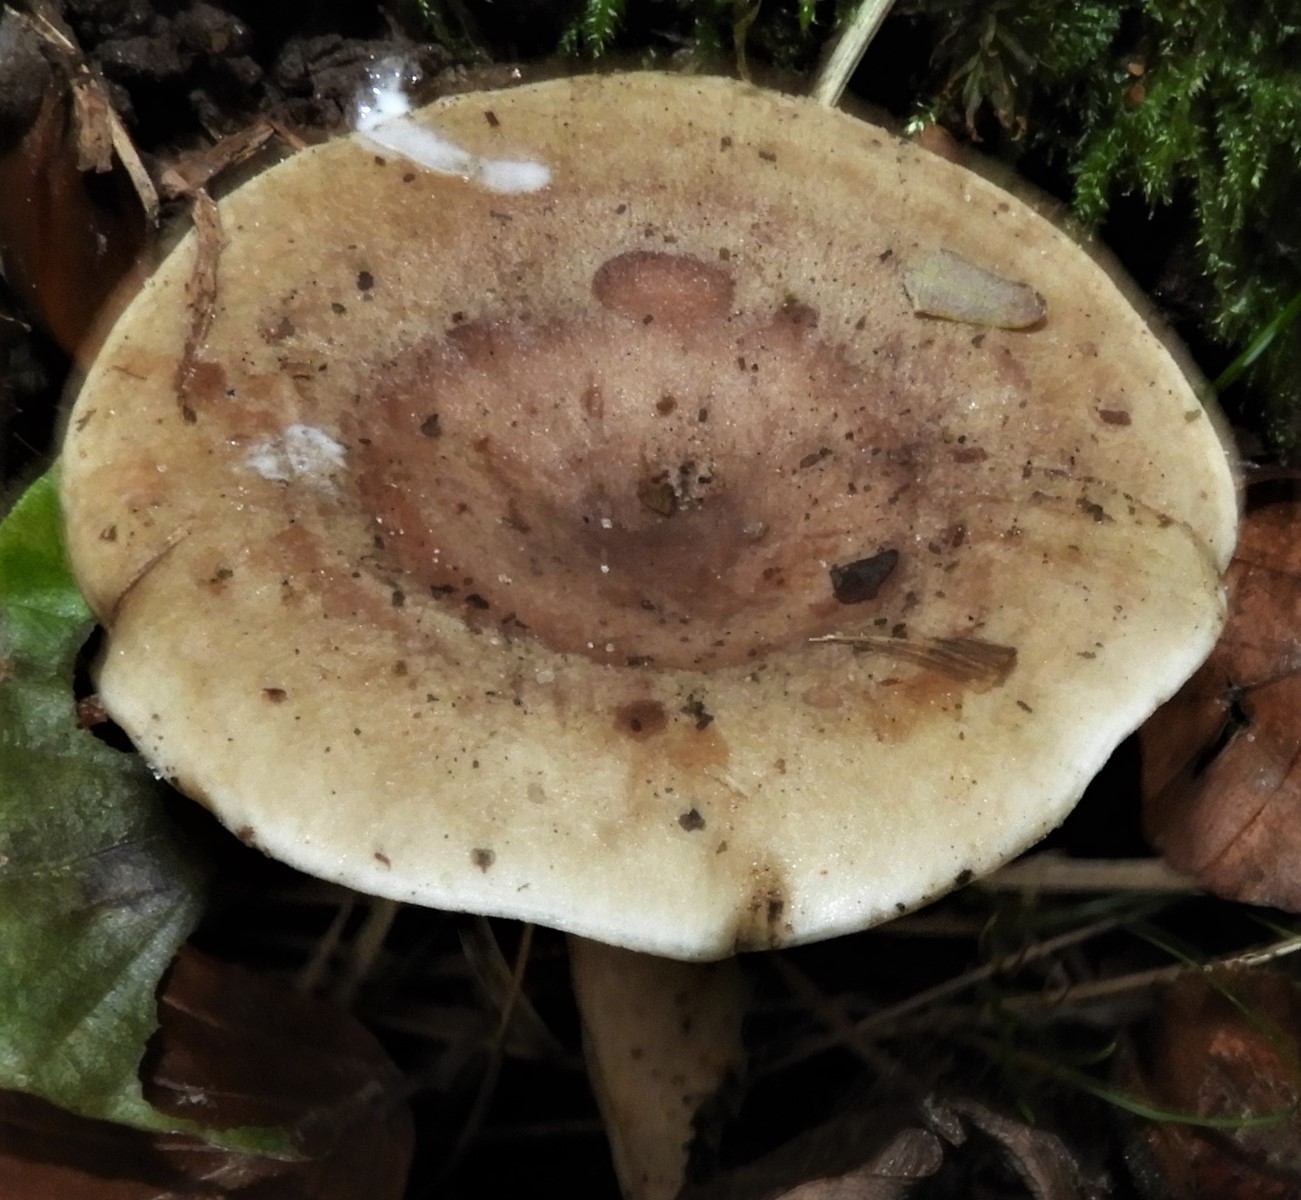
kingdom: Fungi
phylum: Basidiomycota
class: Agaricomycetes
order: Russulales
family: Russulaceae
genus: Lactarius
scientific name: Lactarius fluens
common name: lysrandet mælkehat
